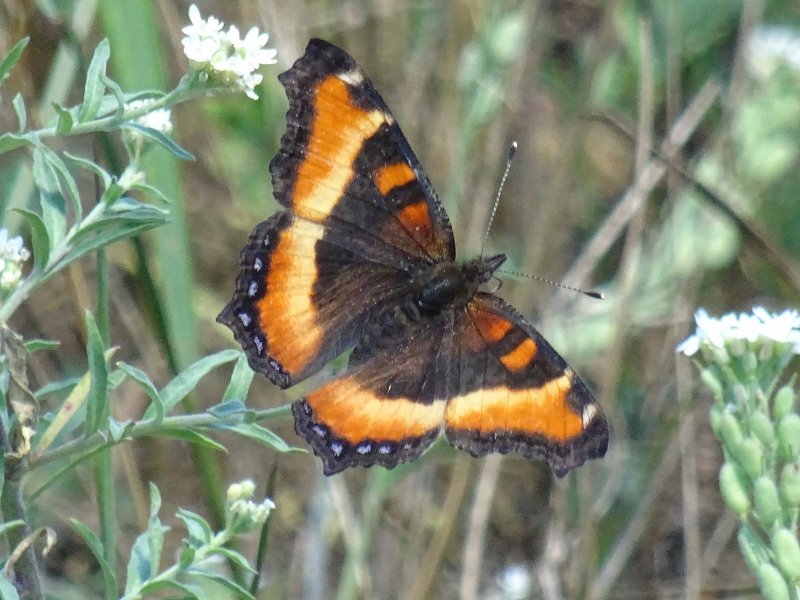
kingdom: Animalia
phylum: Arthropoda
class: Insecta
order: Lepidoptera
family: Nymphalidae
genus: Aglais
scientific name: Aglais milberti
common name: Milbert's Tortoiseshell
